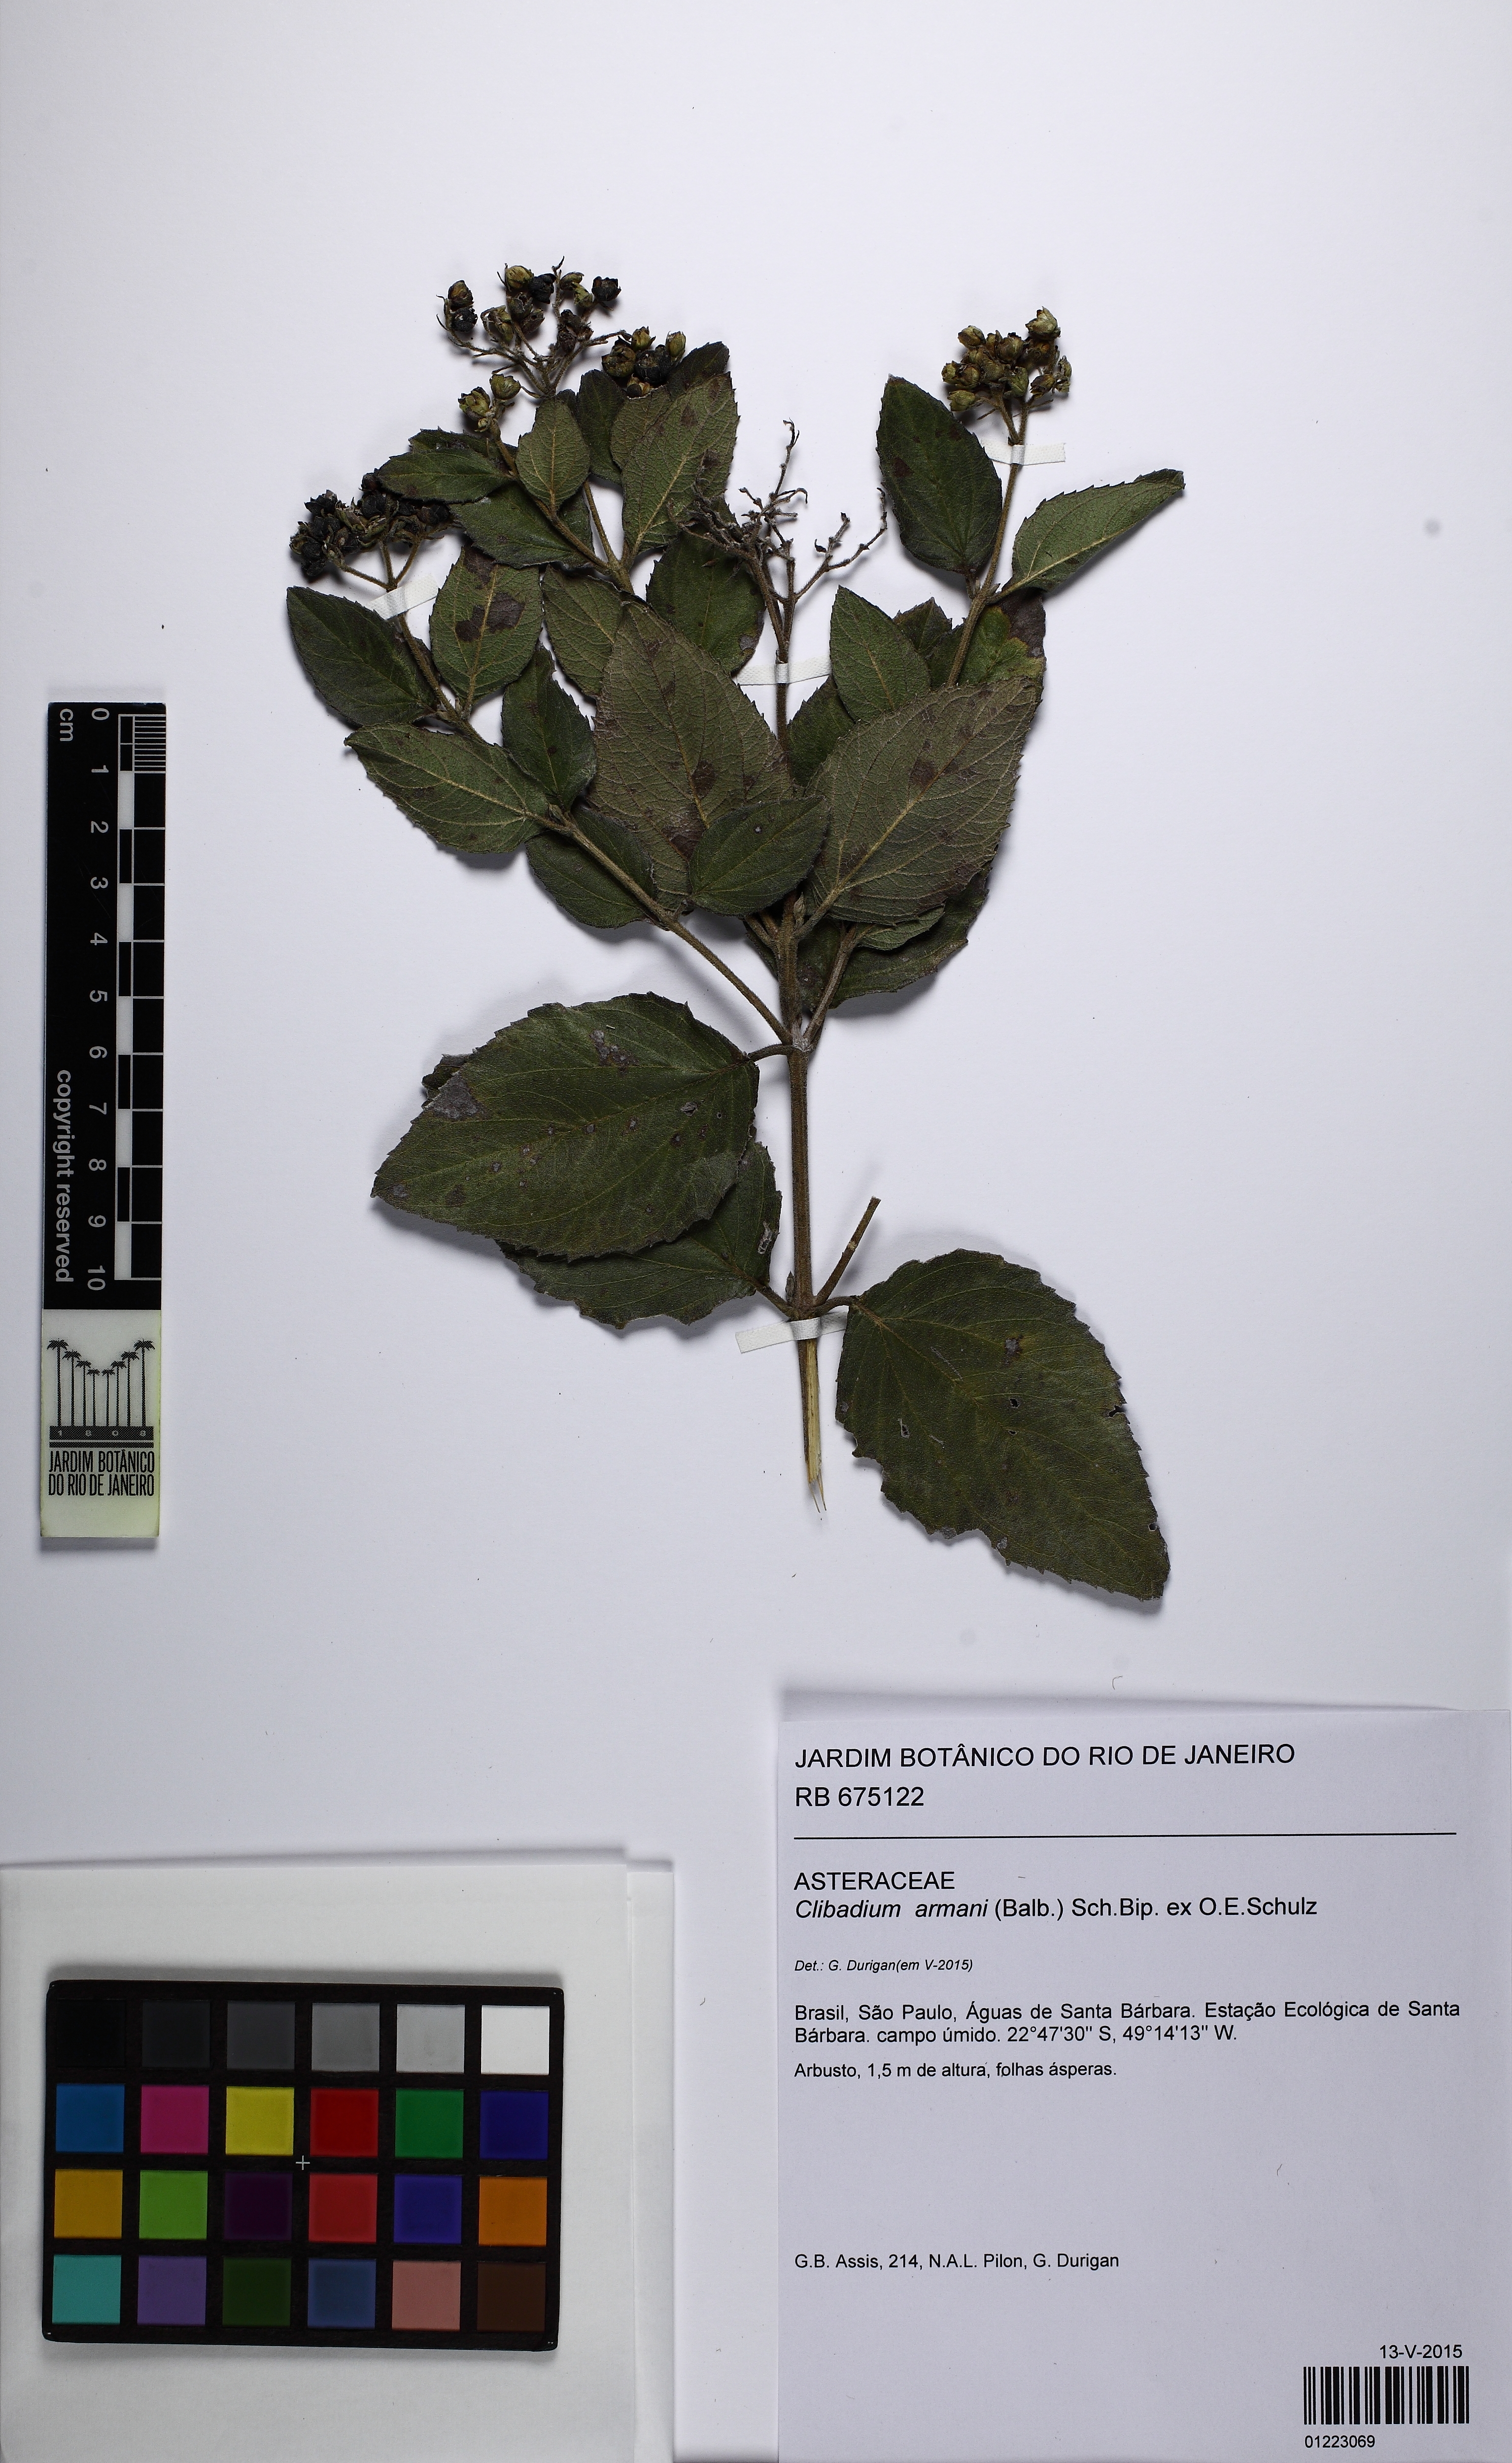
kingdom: Plantae
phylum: Tracheophyta
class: Magnoliopsida
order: Asterales
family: Asteraceae
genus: Clibadium
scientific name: Clibadium armanii
